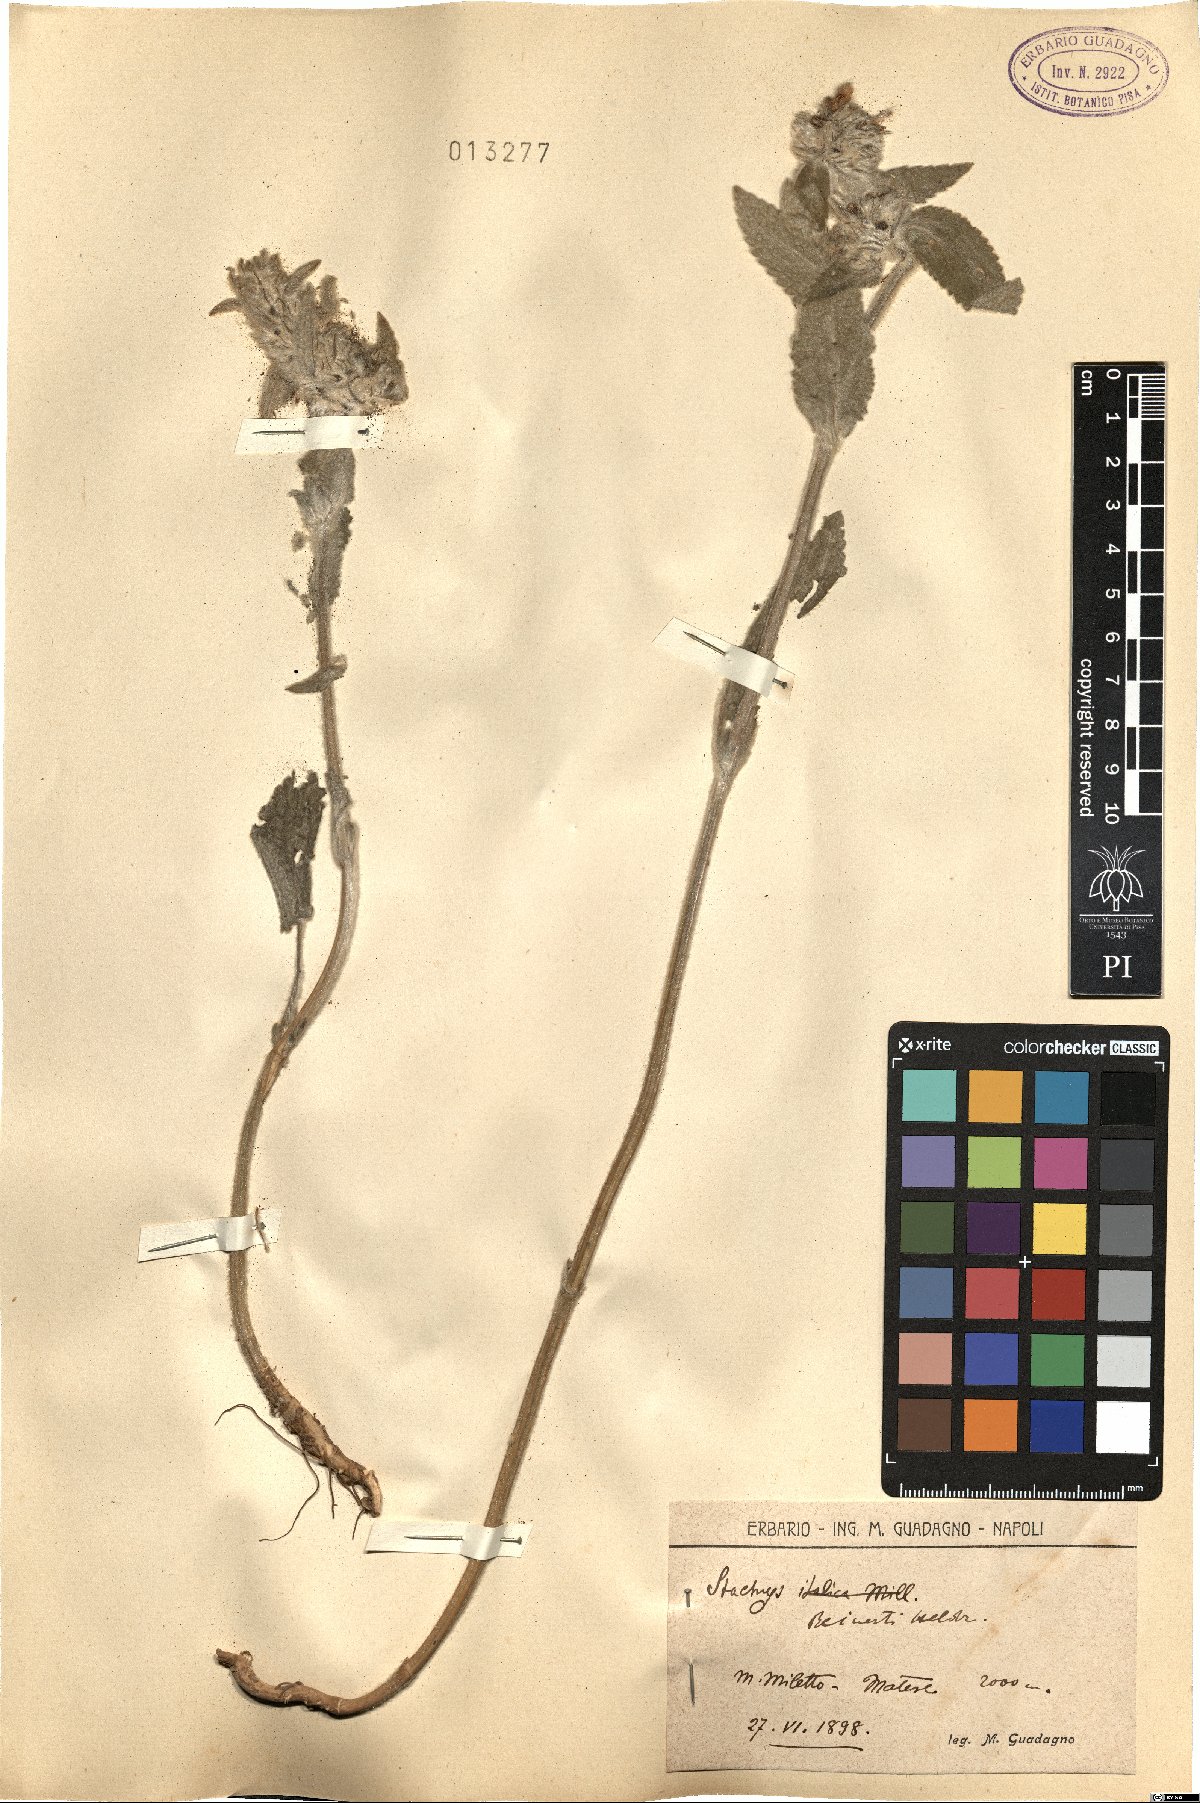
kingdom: Plantae
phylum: Tracheophyta
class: Magnoliopsida
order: Lamiales
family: Lamiaceae
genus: Stachys
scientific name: Stachys tymphaea
